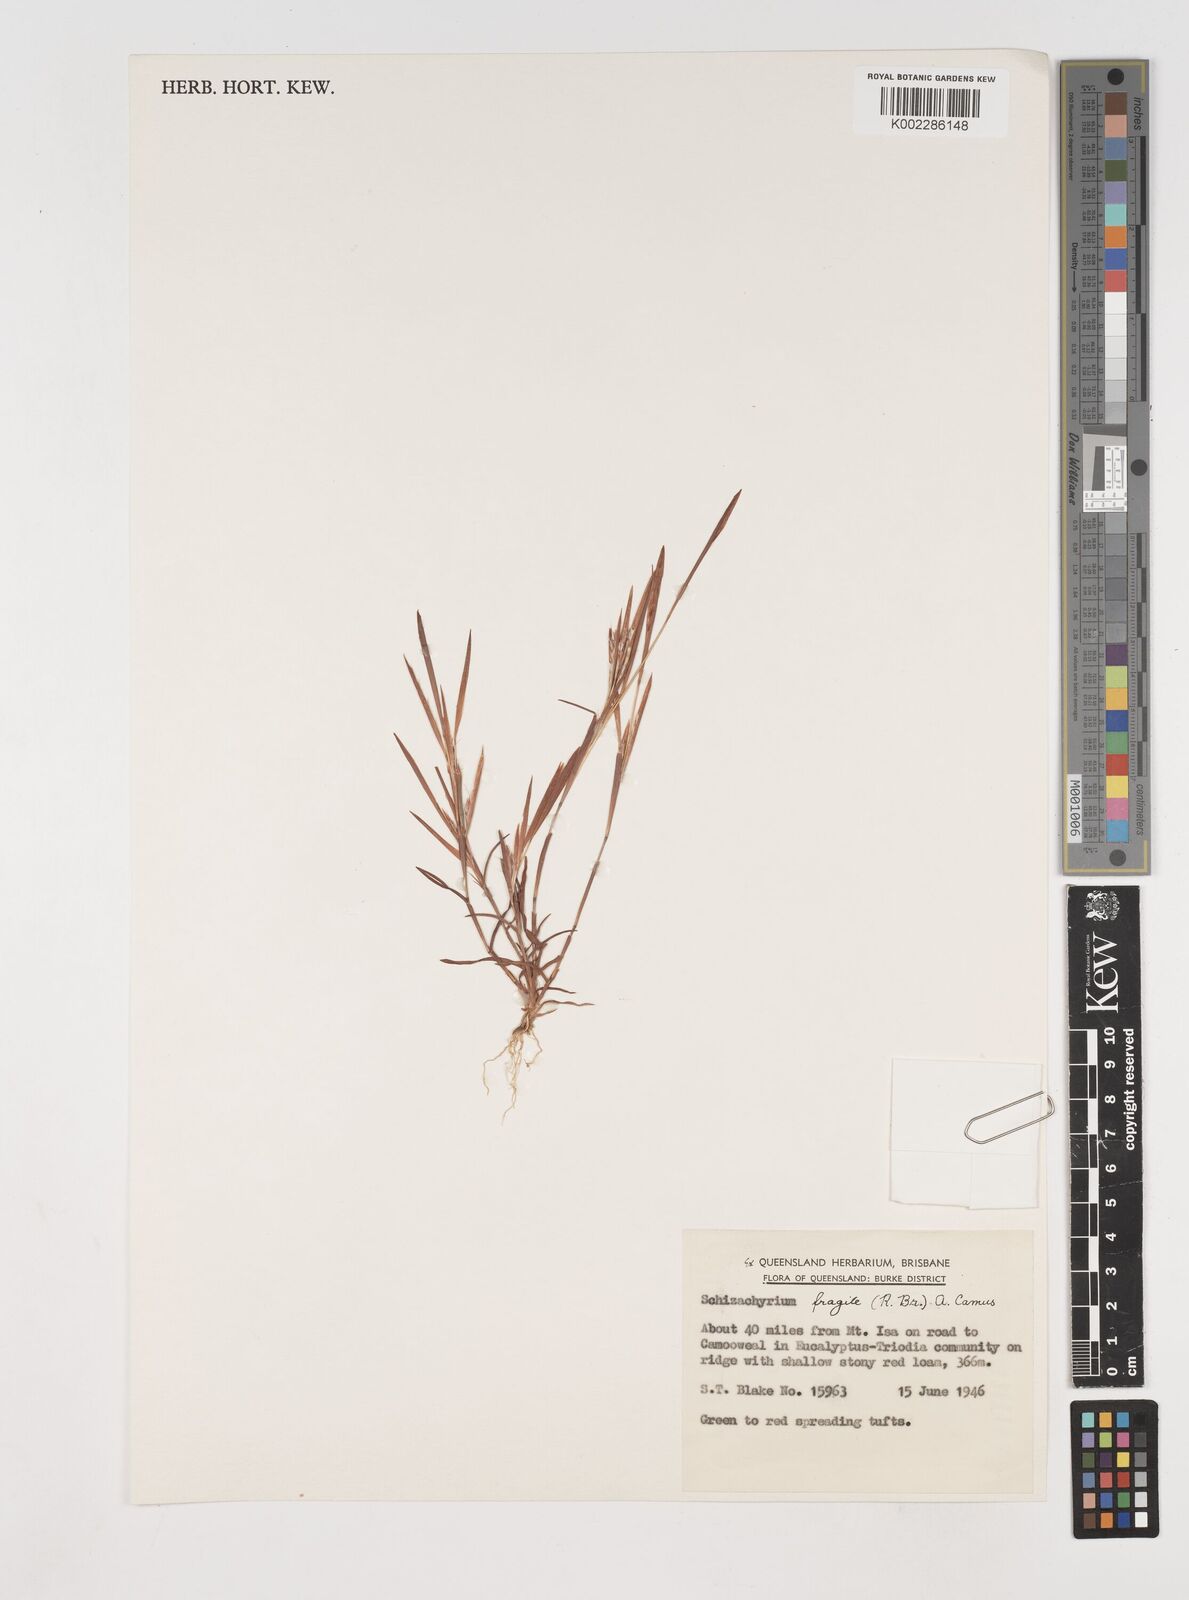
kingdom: Plantae
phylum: Tracheophyta
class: Liliopsida
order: Poales
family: Poaceae
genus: Schizachyrium
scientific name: Schizachyrium fragile
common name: Red spathe grass
